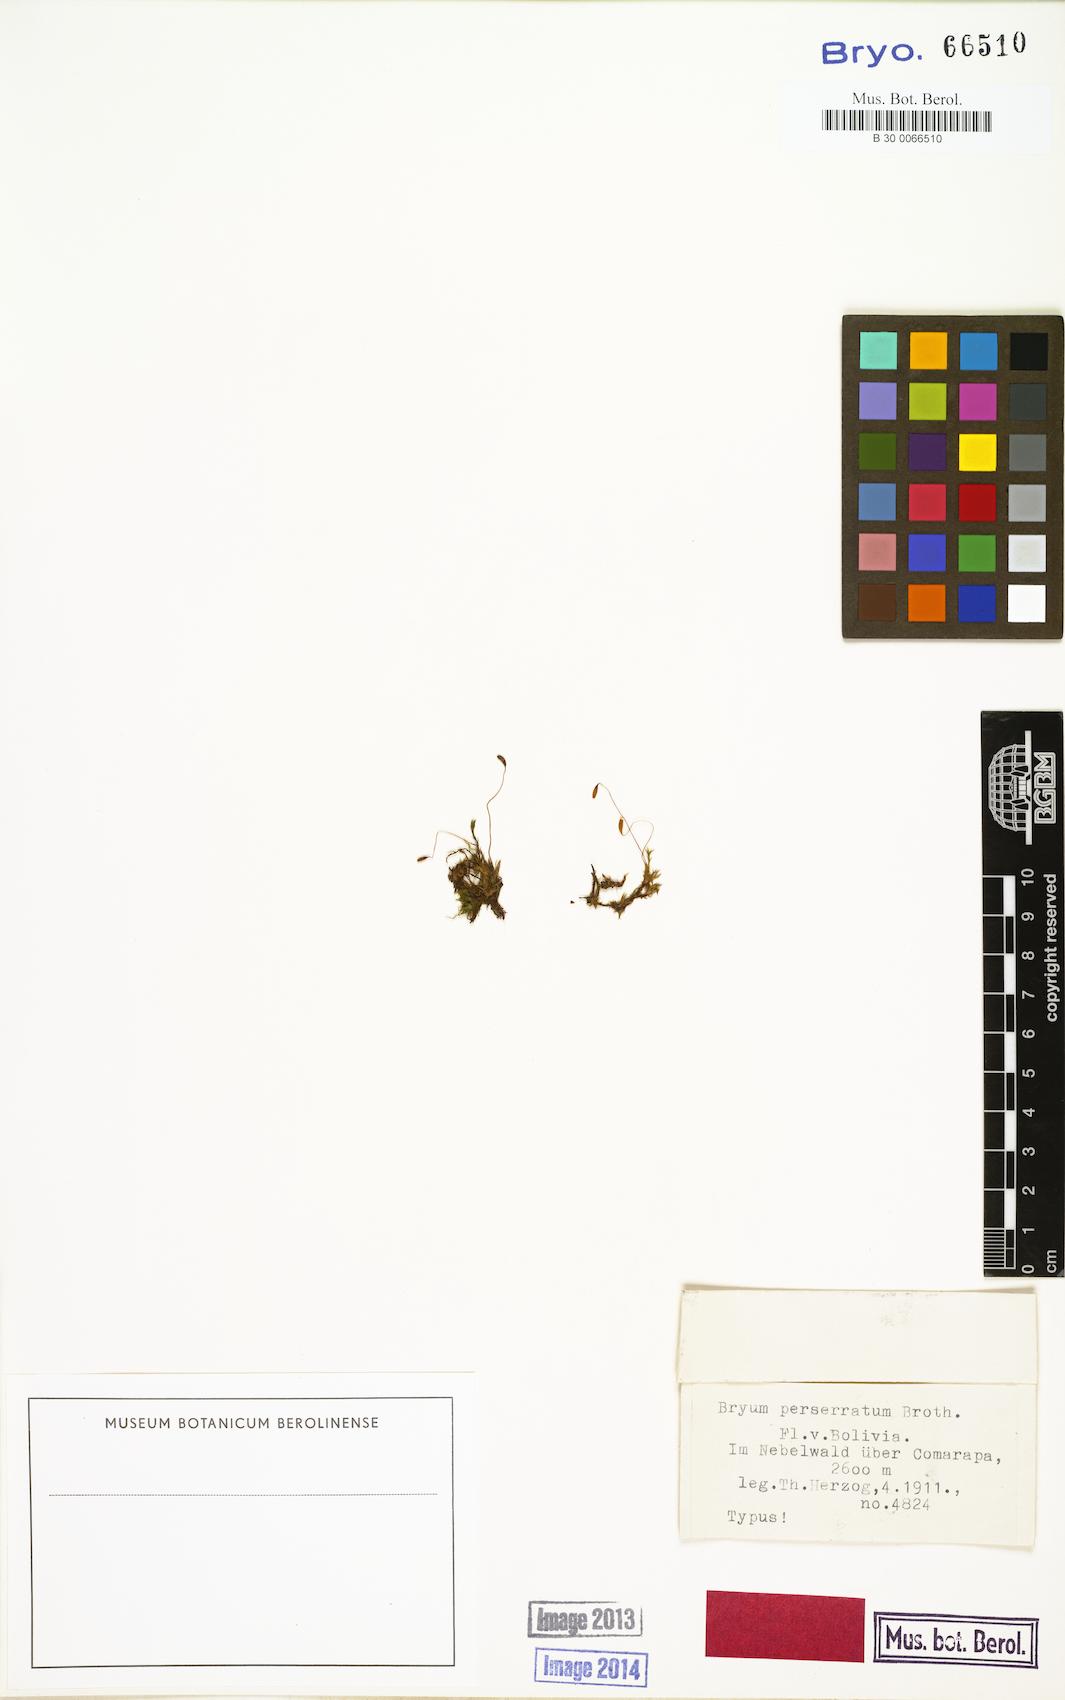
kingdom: Plantae
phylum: Bryophyta
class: Bryopsida
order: Bryales
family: Bryaceae
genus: Rosulabryum
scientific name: Rosulabryum andicola
